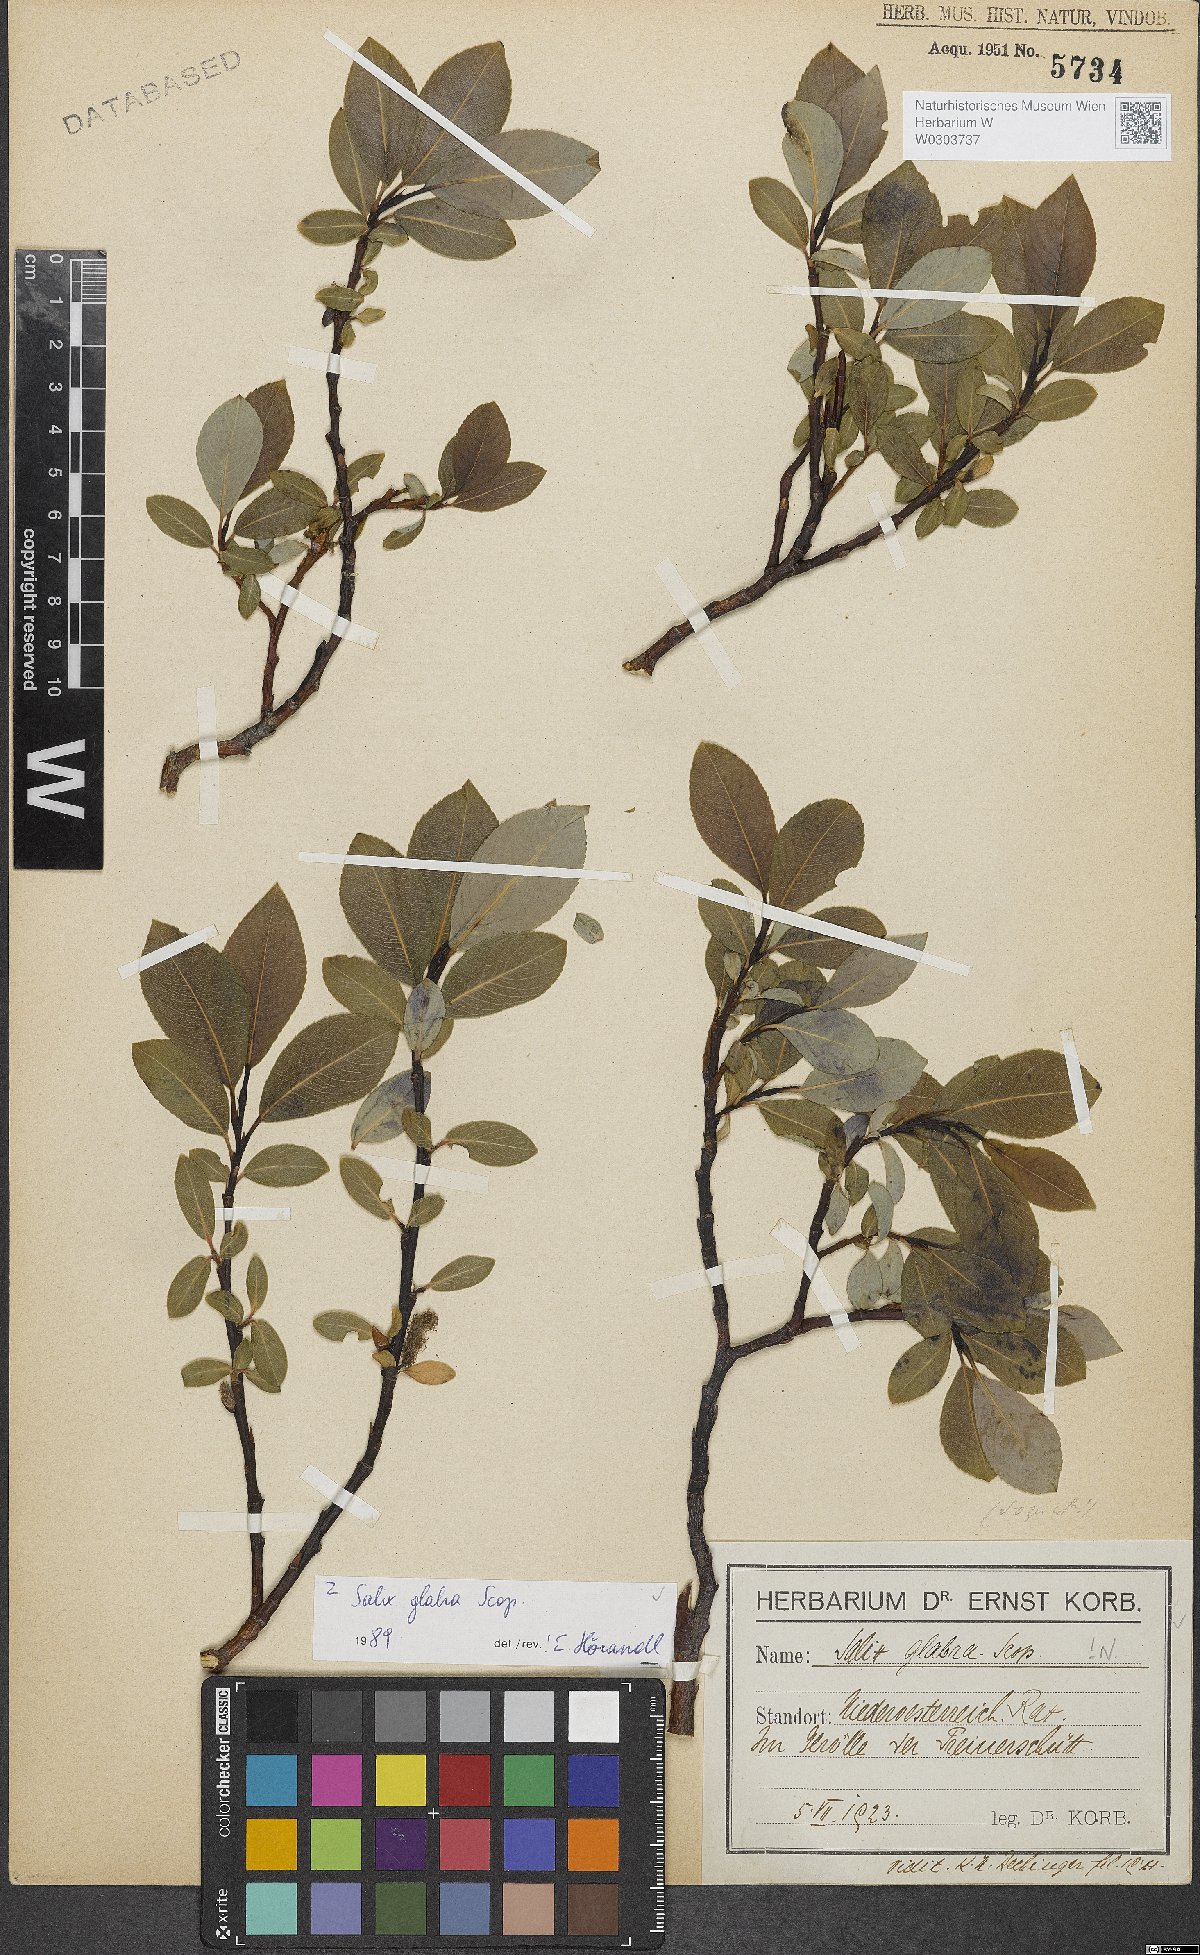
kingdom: Plantae
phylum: Tracheophyta
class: Magnoliopsida
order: Malpighiales
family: Salicaceae
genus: Salix
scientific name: Salix glabra
